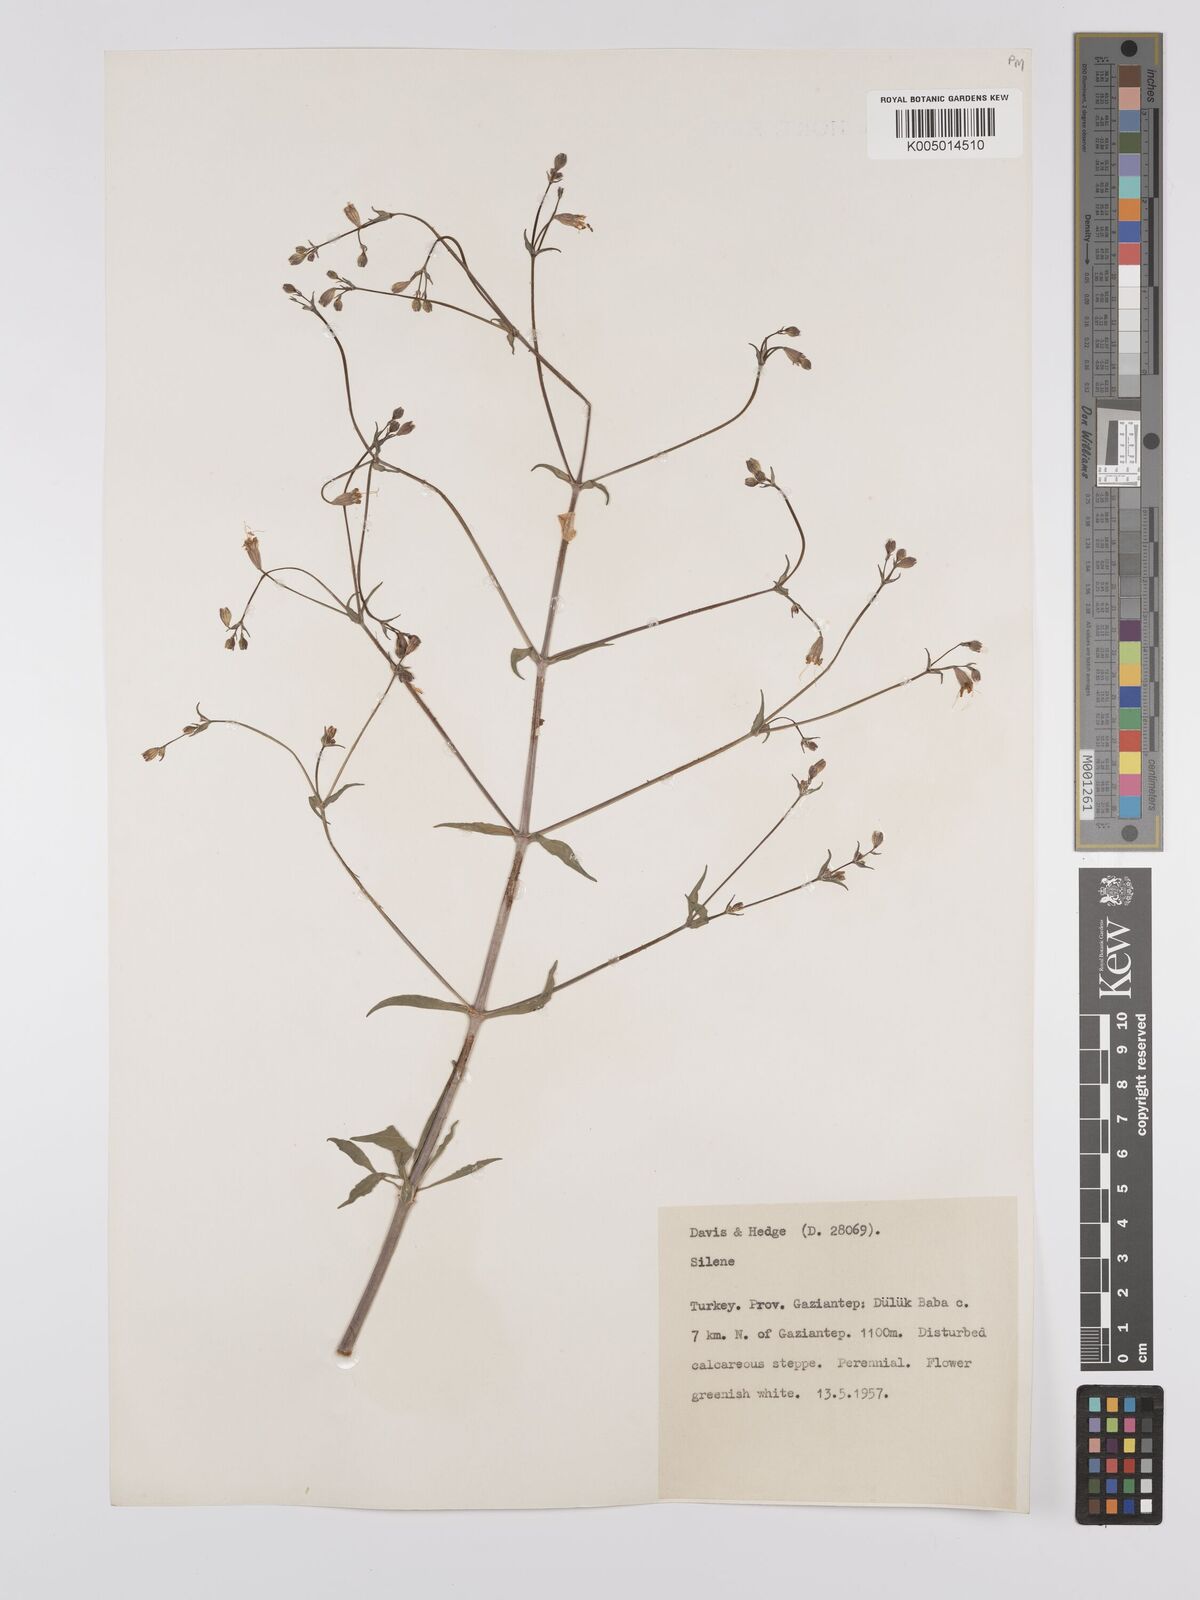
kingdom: Plantae
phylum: Tracheophyta
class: Magnoliopsida
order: Caryophyllales
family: Caryophyllaceae
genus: Silene
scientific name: Silene
